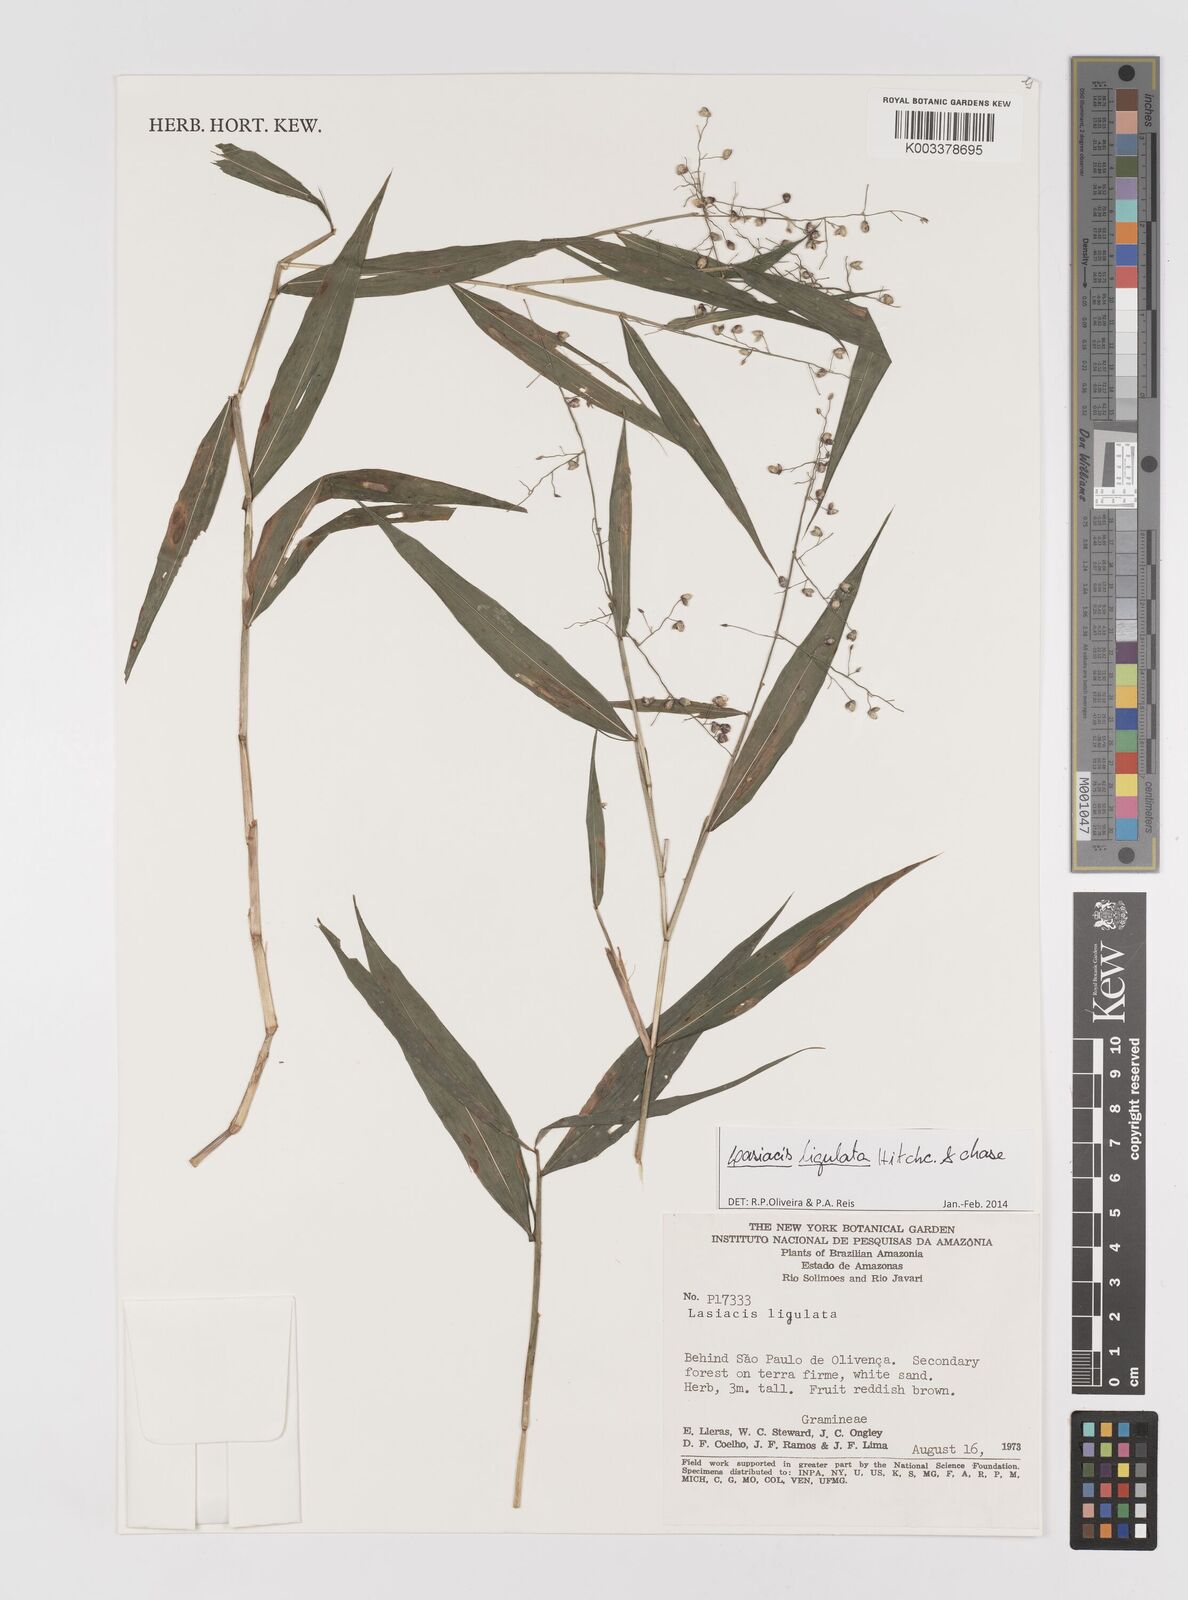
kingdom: Plantae
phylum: Tracheophyta
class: Liliopsida
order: Poales
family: Poaceae
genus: Lasiacis
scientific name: Lasiacis ligulata
